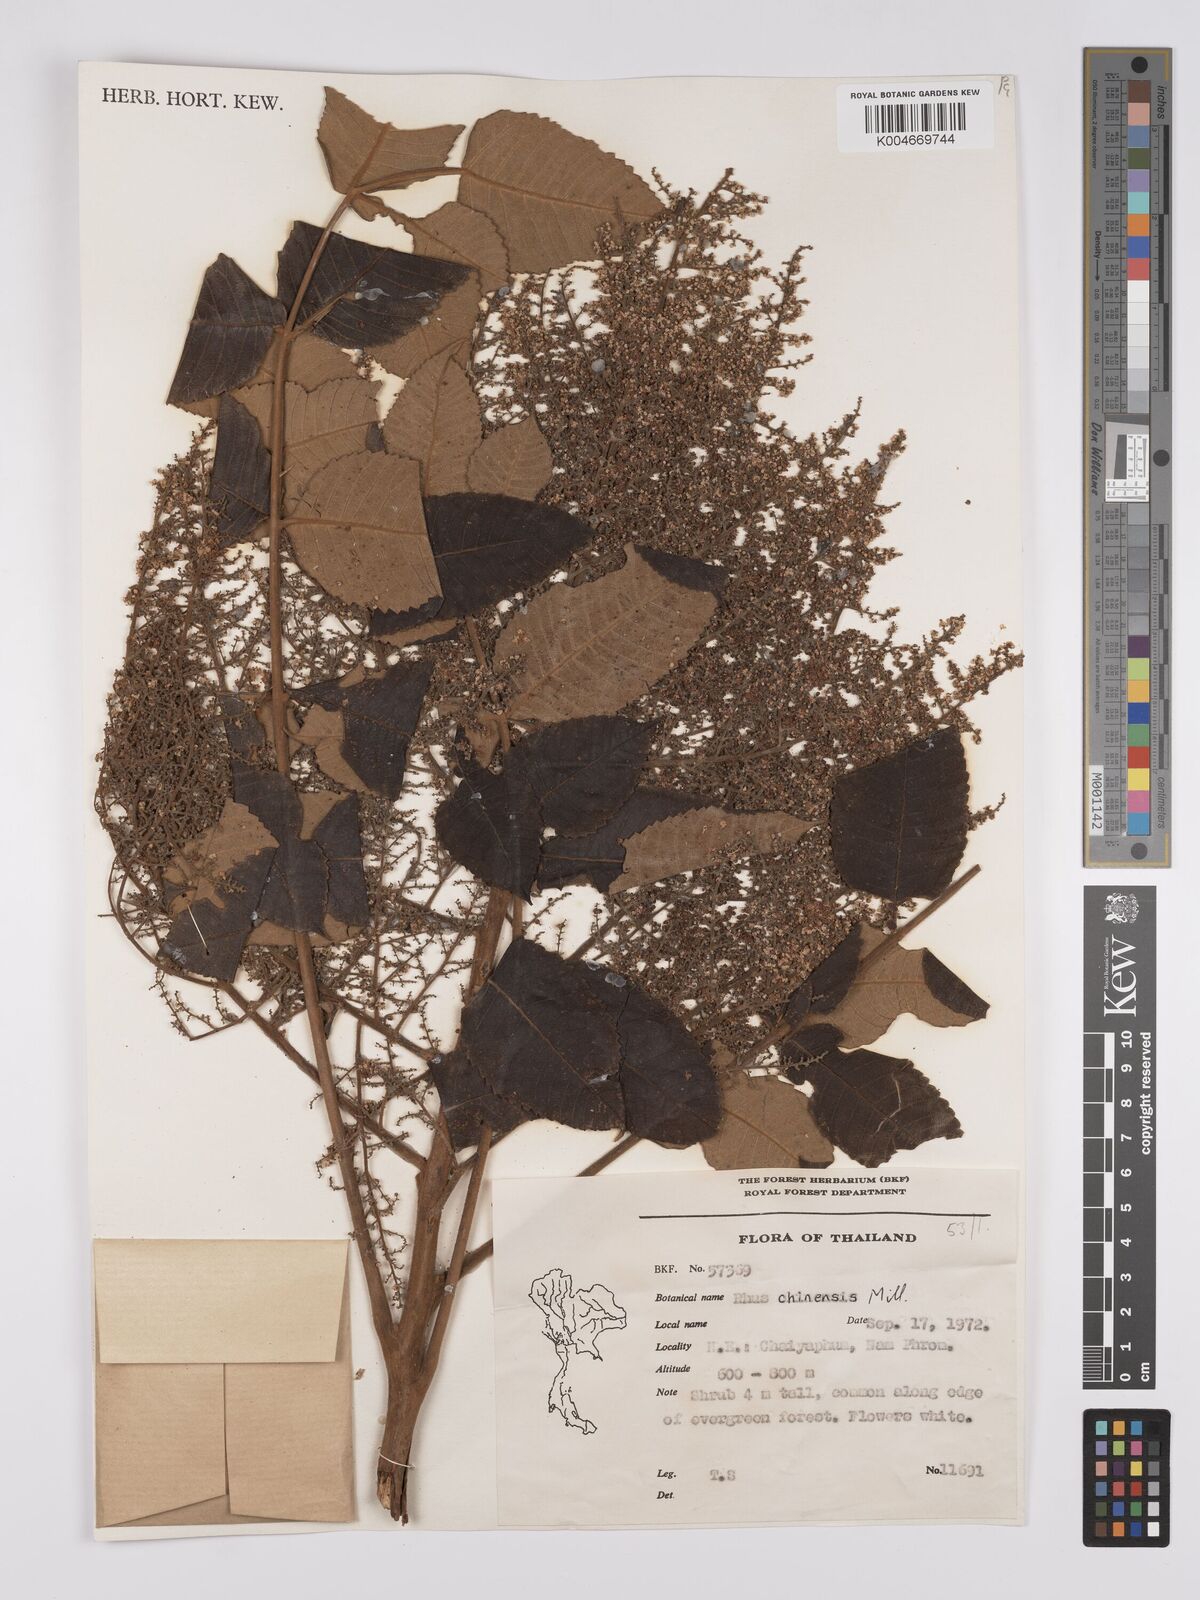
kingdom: Plantae
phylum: Tracheophyta
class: Magnoliopsida
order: Sapindales
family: Anacardiaceae
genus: Rhus
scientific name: Rhus chinensis
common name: Chinese gall
